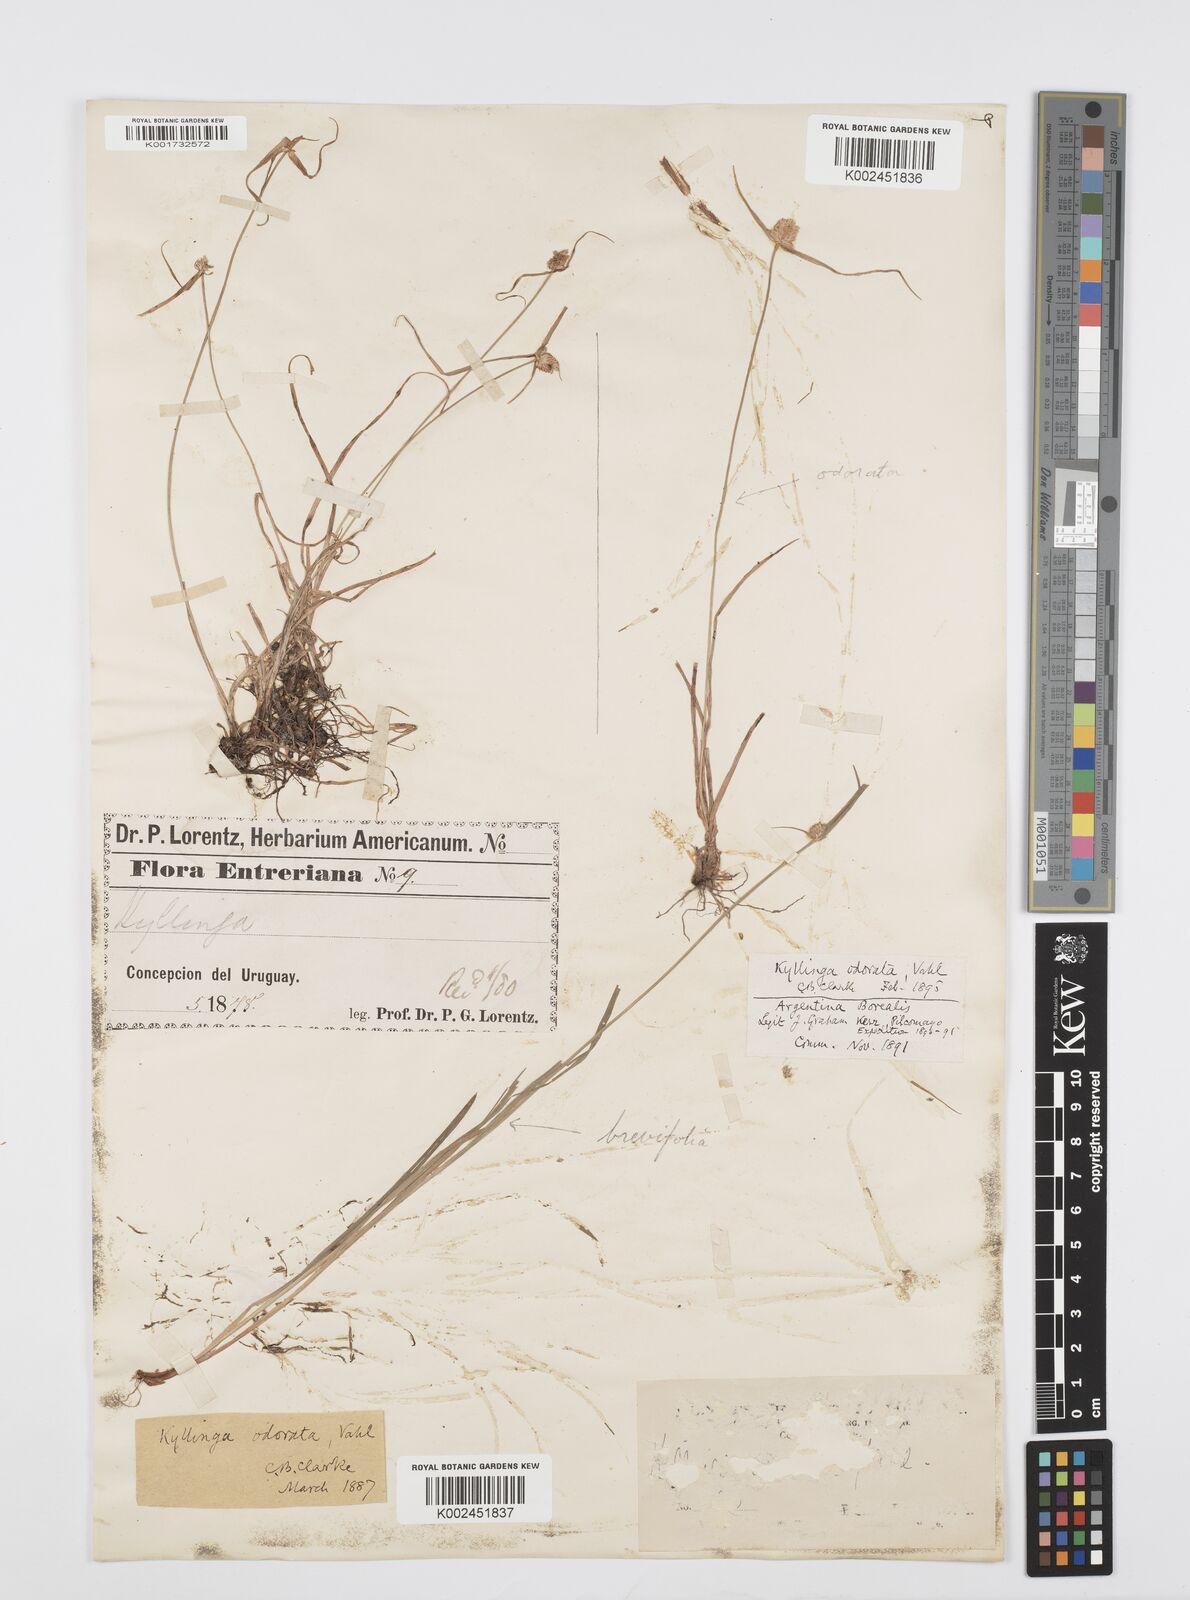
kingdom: Plantae
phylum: Tracheophyta
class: Liliopsida
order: Poales
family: Cyperaceae
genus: Cyperus
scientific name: Cyperus
